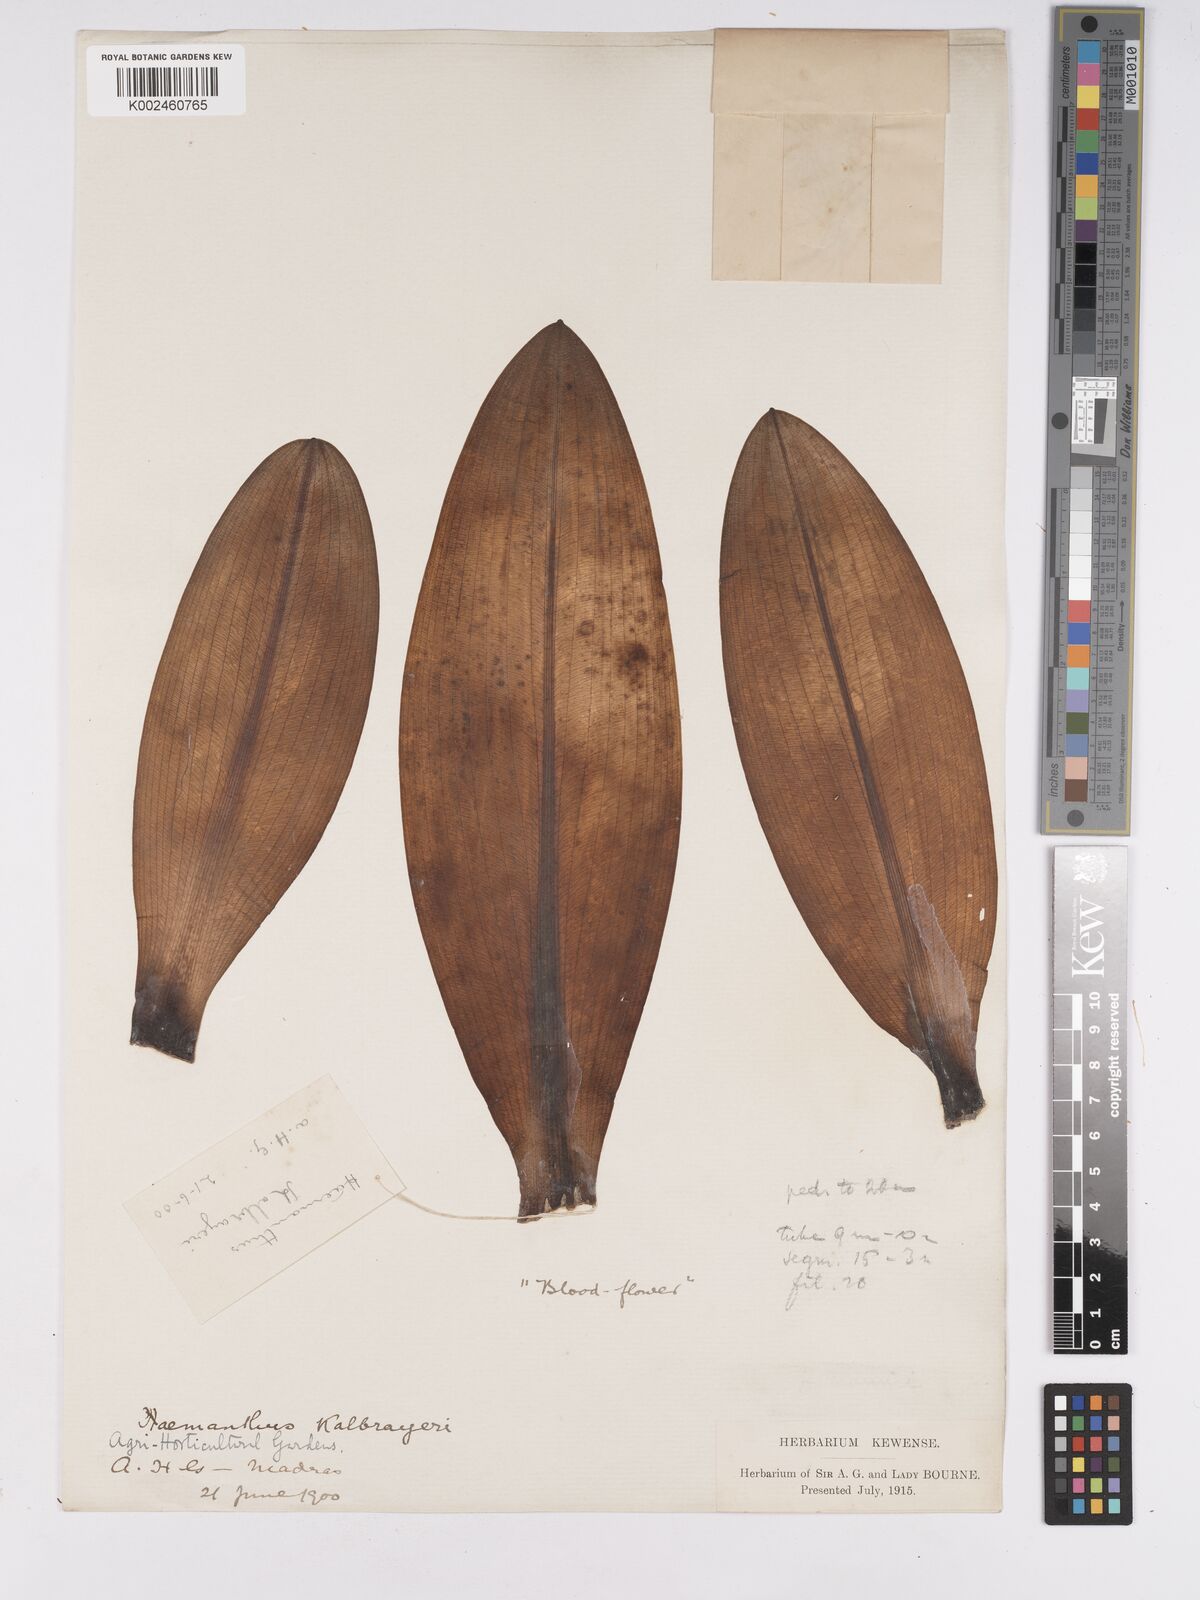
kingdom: Plantae
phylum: Tracheophyta
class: Liliopsida
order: Asparagales
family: Amaryllidaceae
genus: Scadoxus
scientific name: Scadoxus
